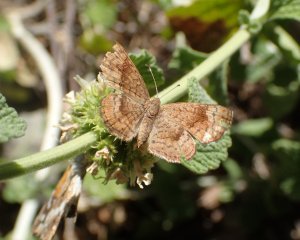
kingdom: Animalia
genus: Calephelis
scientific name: Calephelis nemesis
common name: Fatal Metalmark
